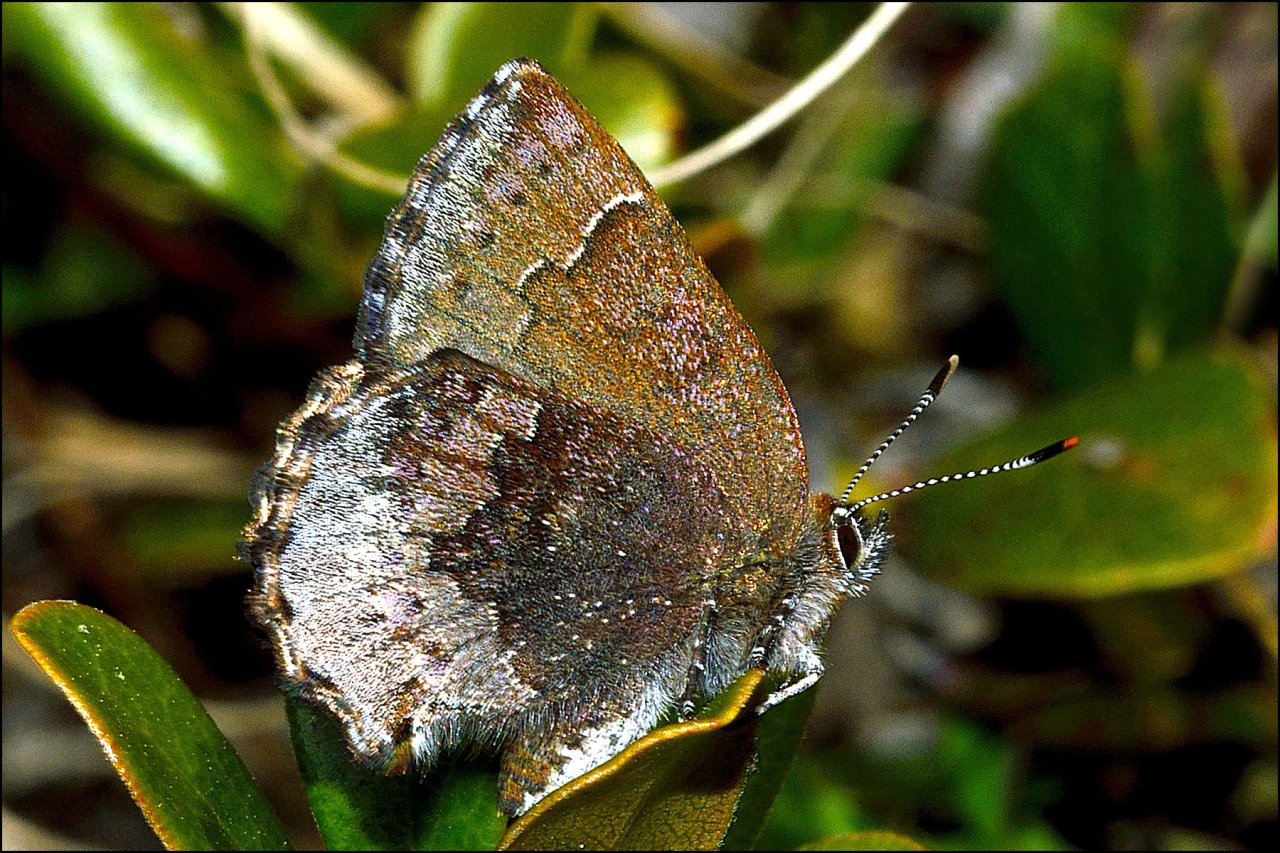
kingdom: Animalia
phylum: Arthropoda
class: Insecta
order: Lepidoptera
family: Lycaenidae
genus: Callophrys
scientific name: Callophrys polios
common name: Hoary Elfin
